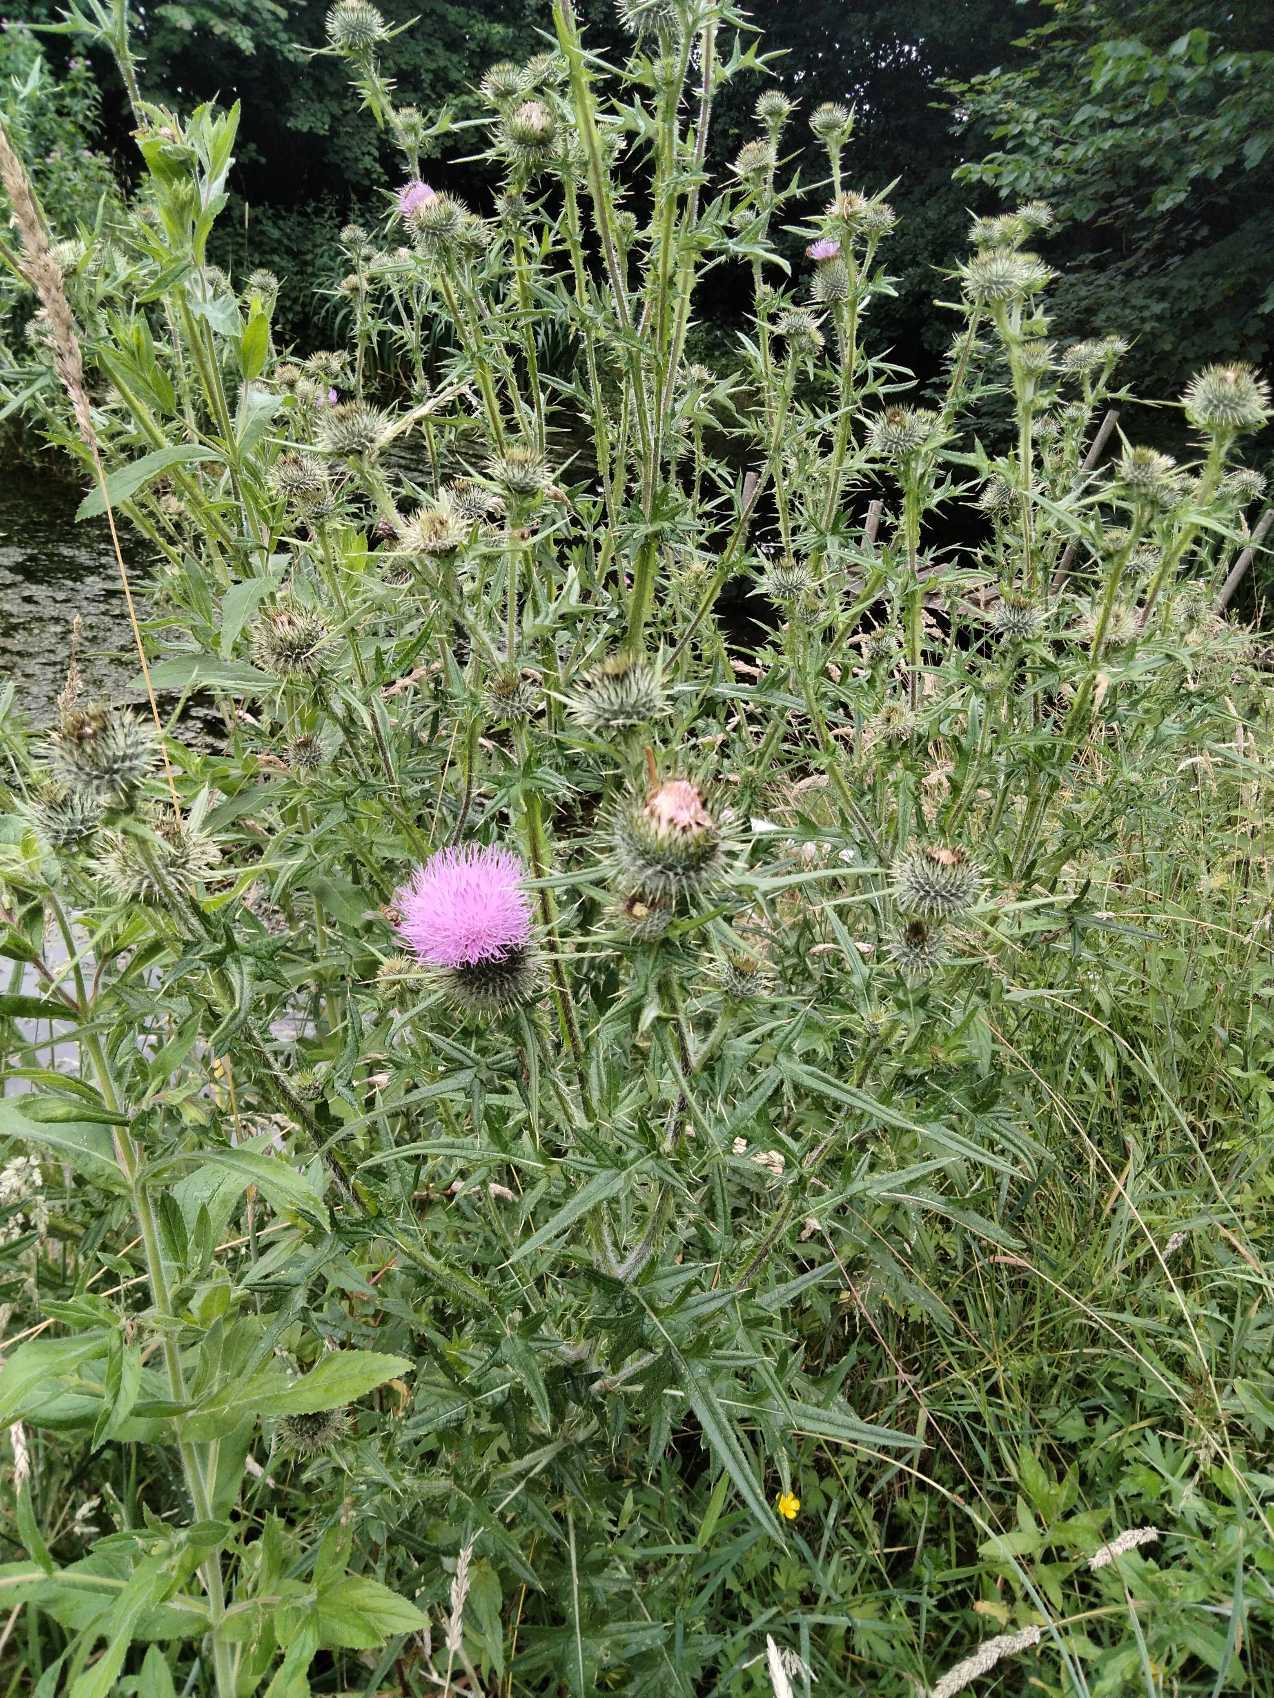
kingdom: Plantae
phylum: Tracheophyta
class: Magnoliopsida
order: Asterales
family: Asteraceae
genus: Cirsium
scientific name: Cirsium vulgare
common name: Horse-tidsel
